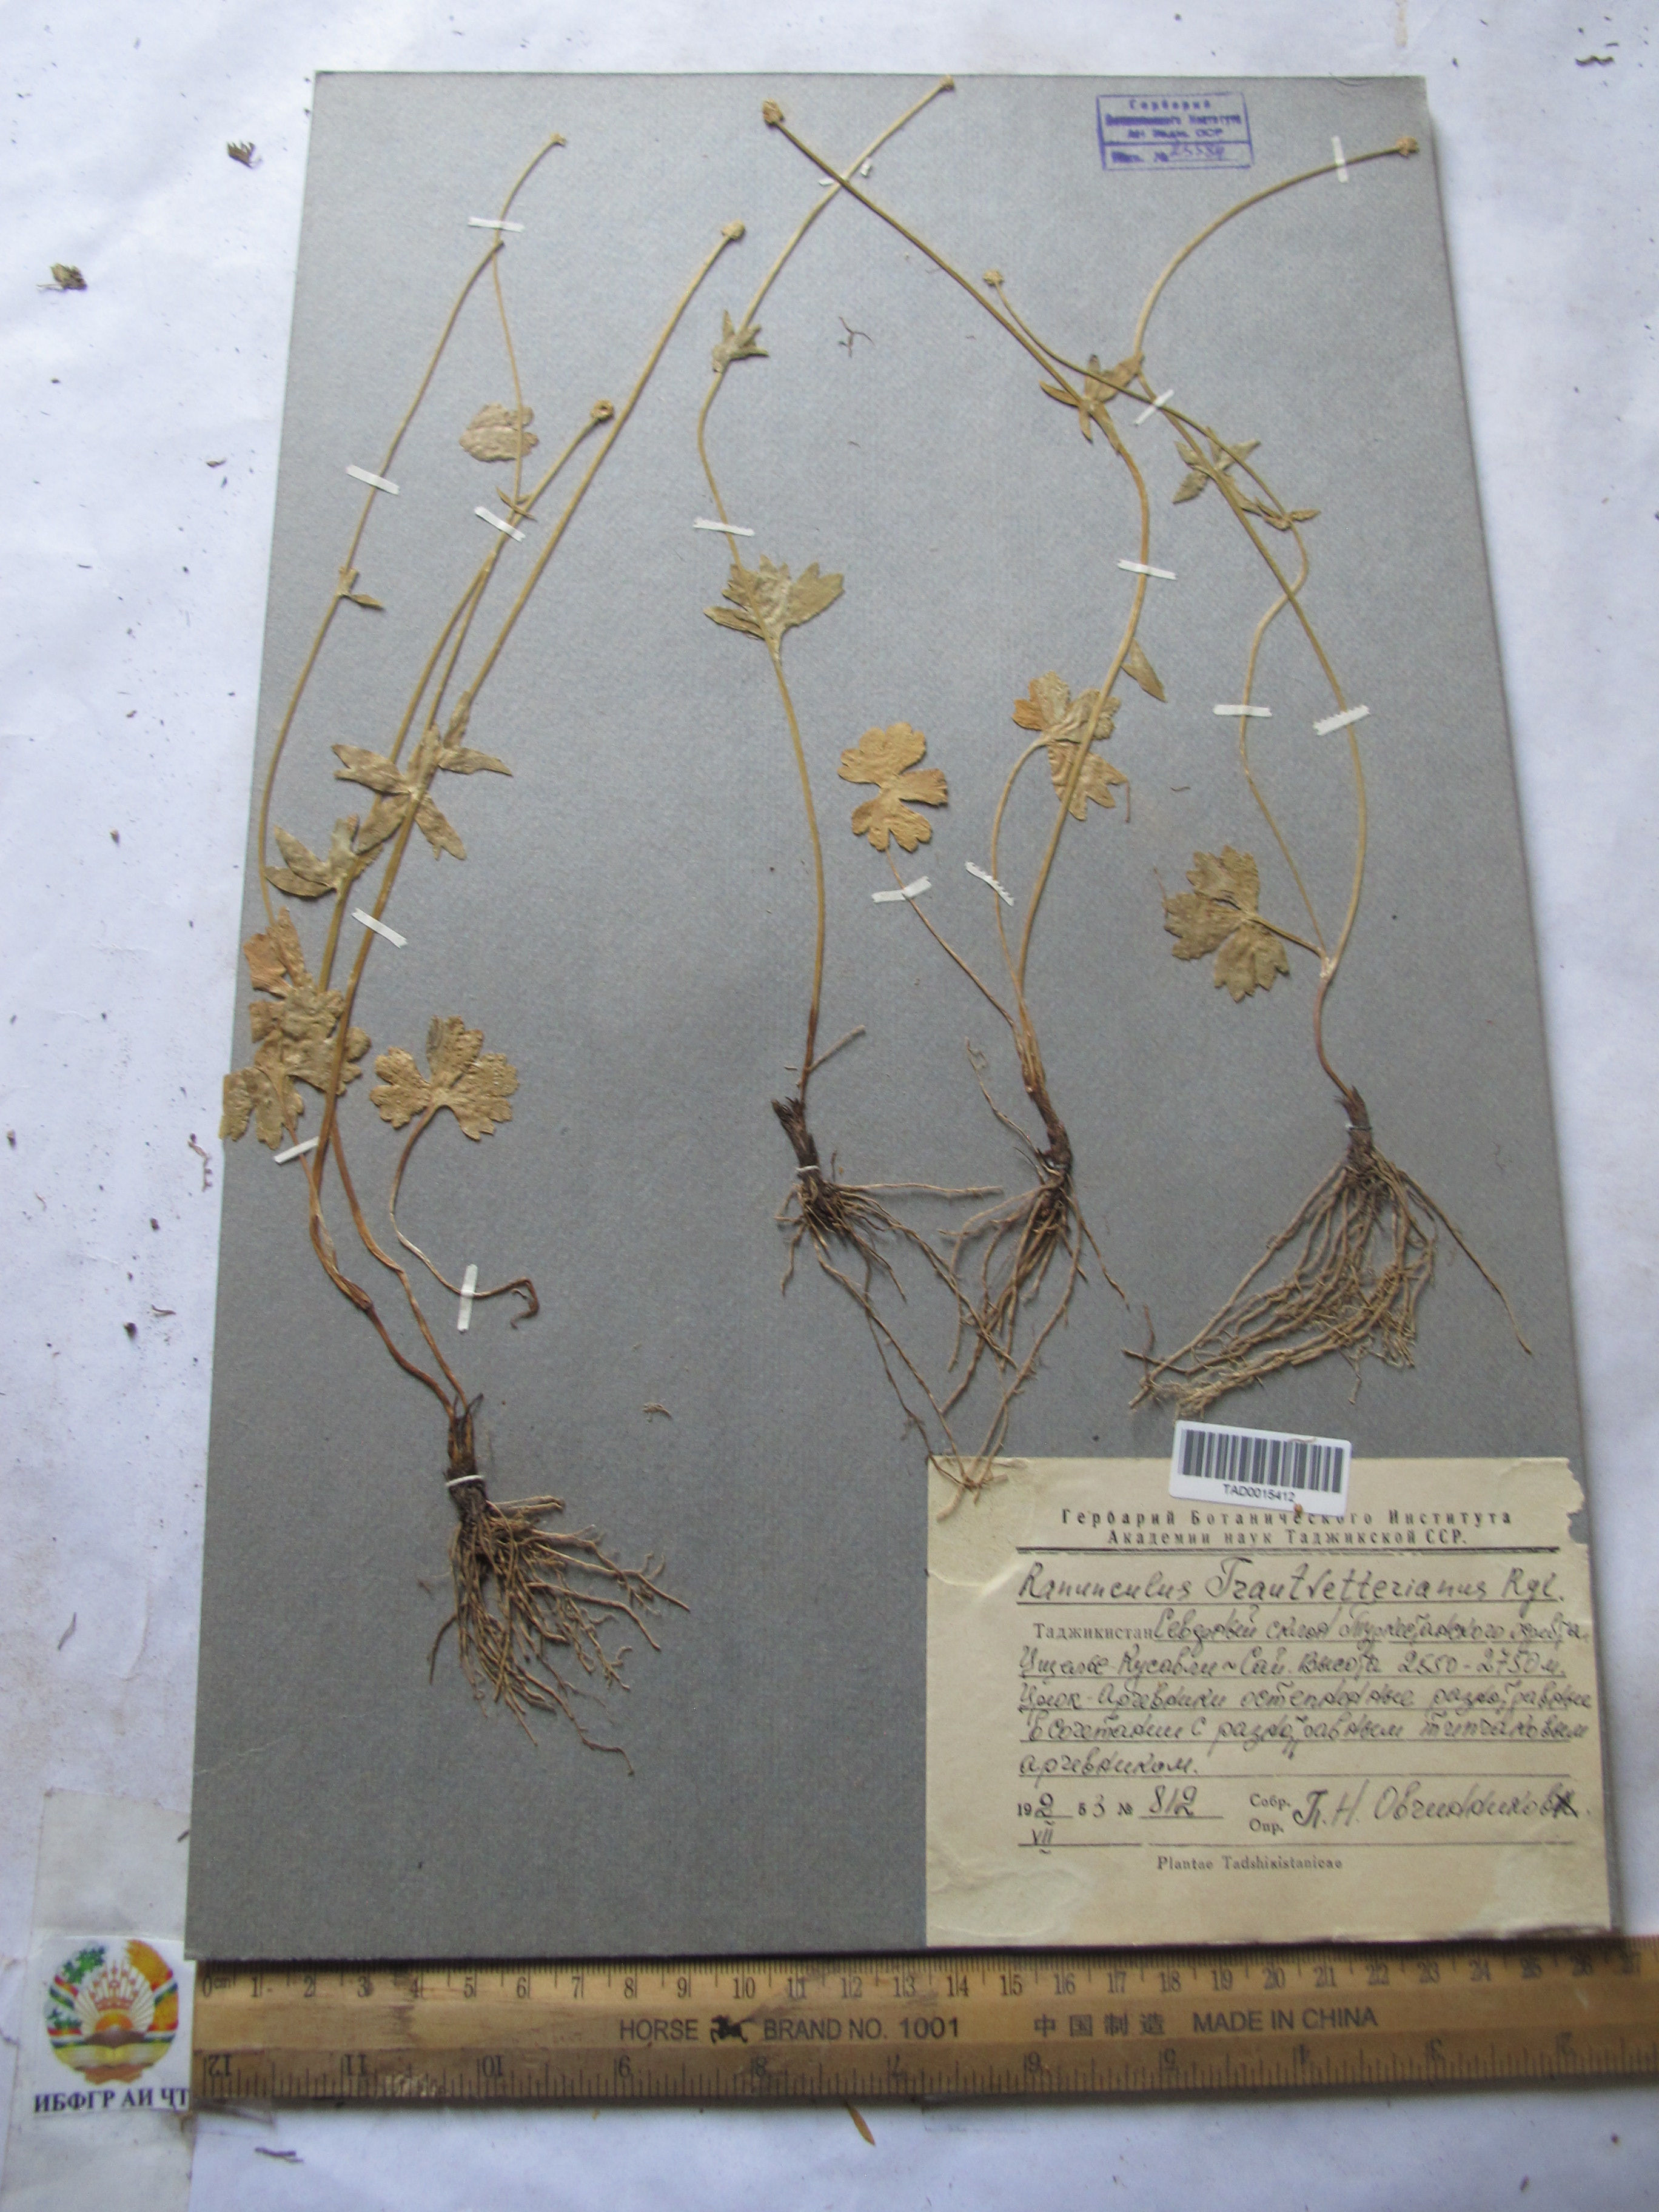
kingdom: Plantae
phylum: Tracheophyta
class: Magnoliopsida
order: Ranunculales
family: Ranunculaceae
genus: Ranunculus
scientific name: Ranunculus songaricus
